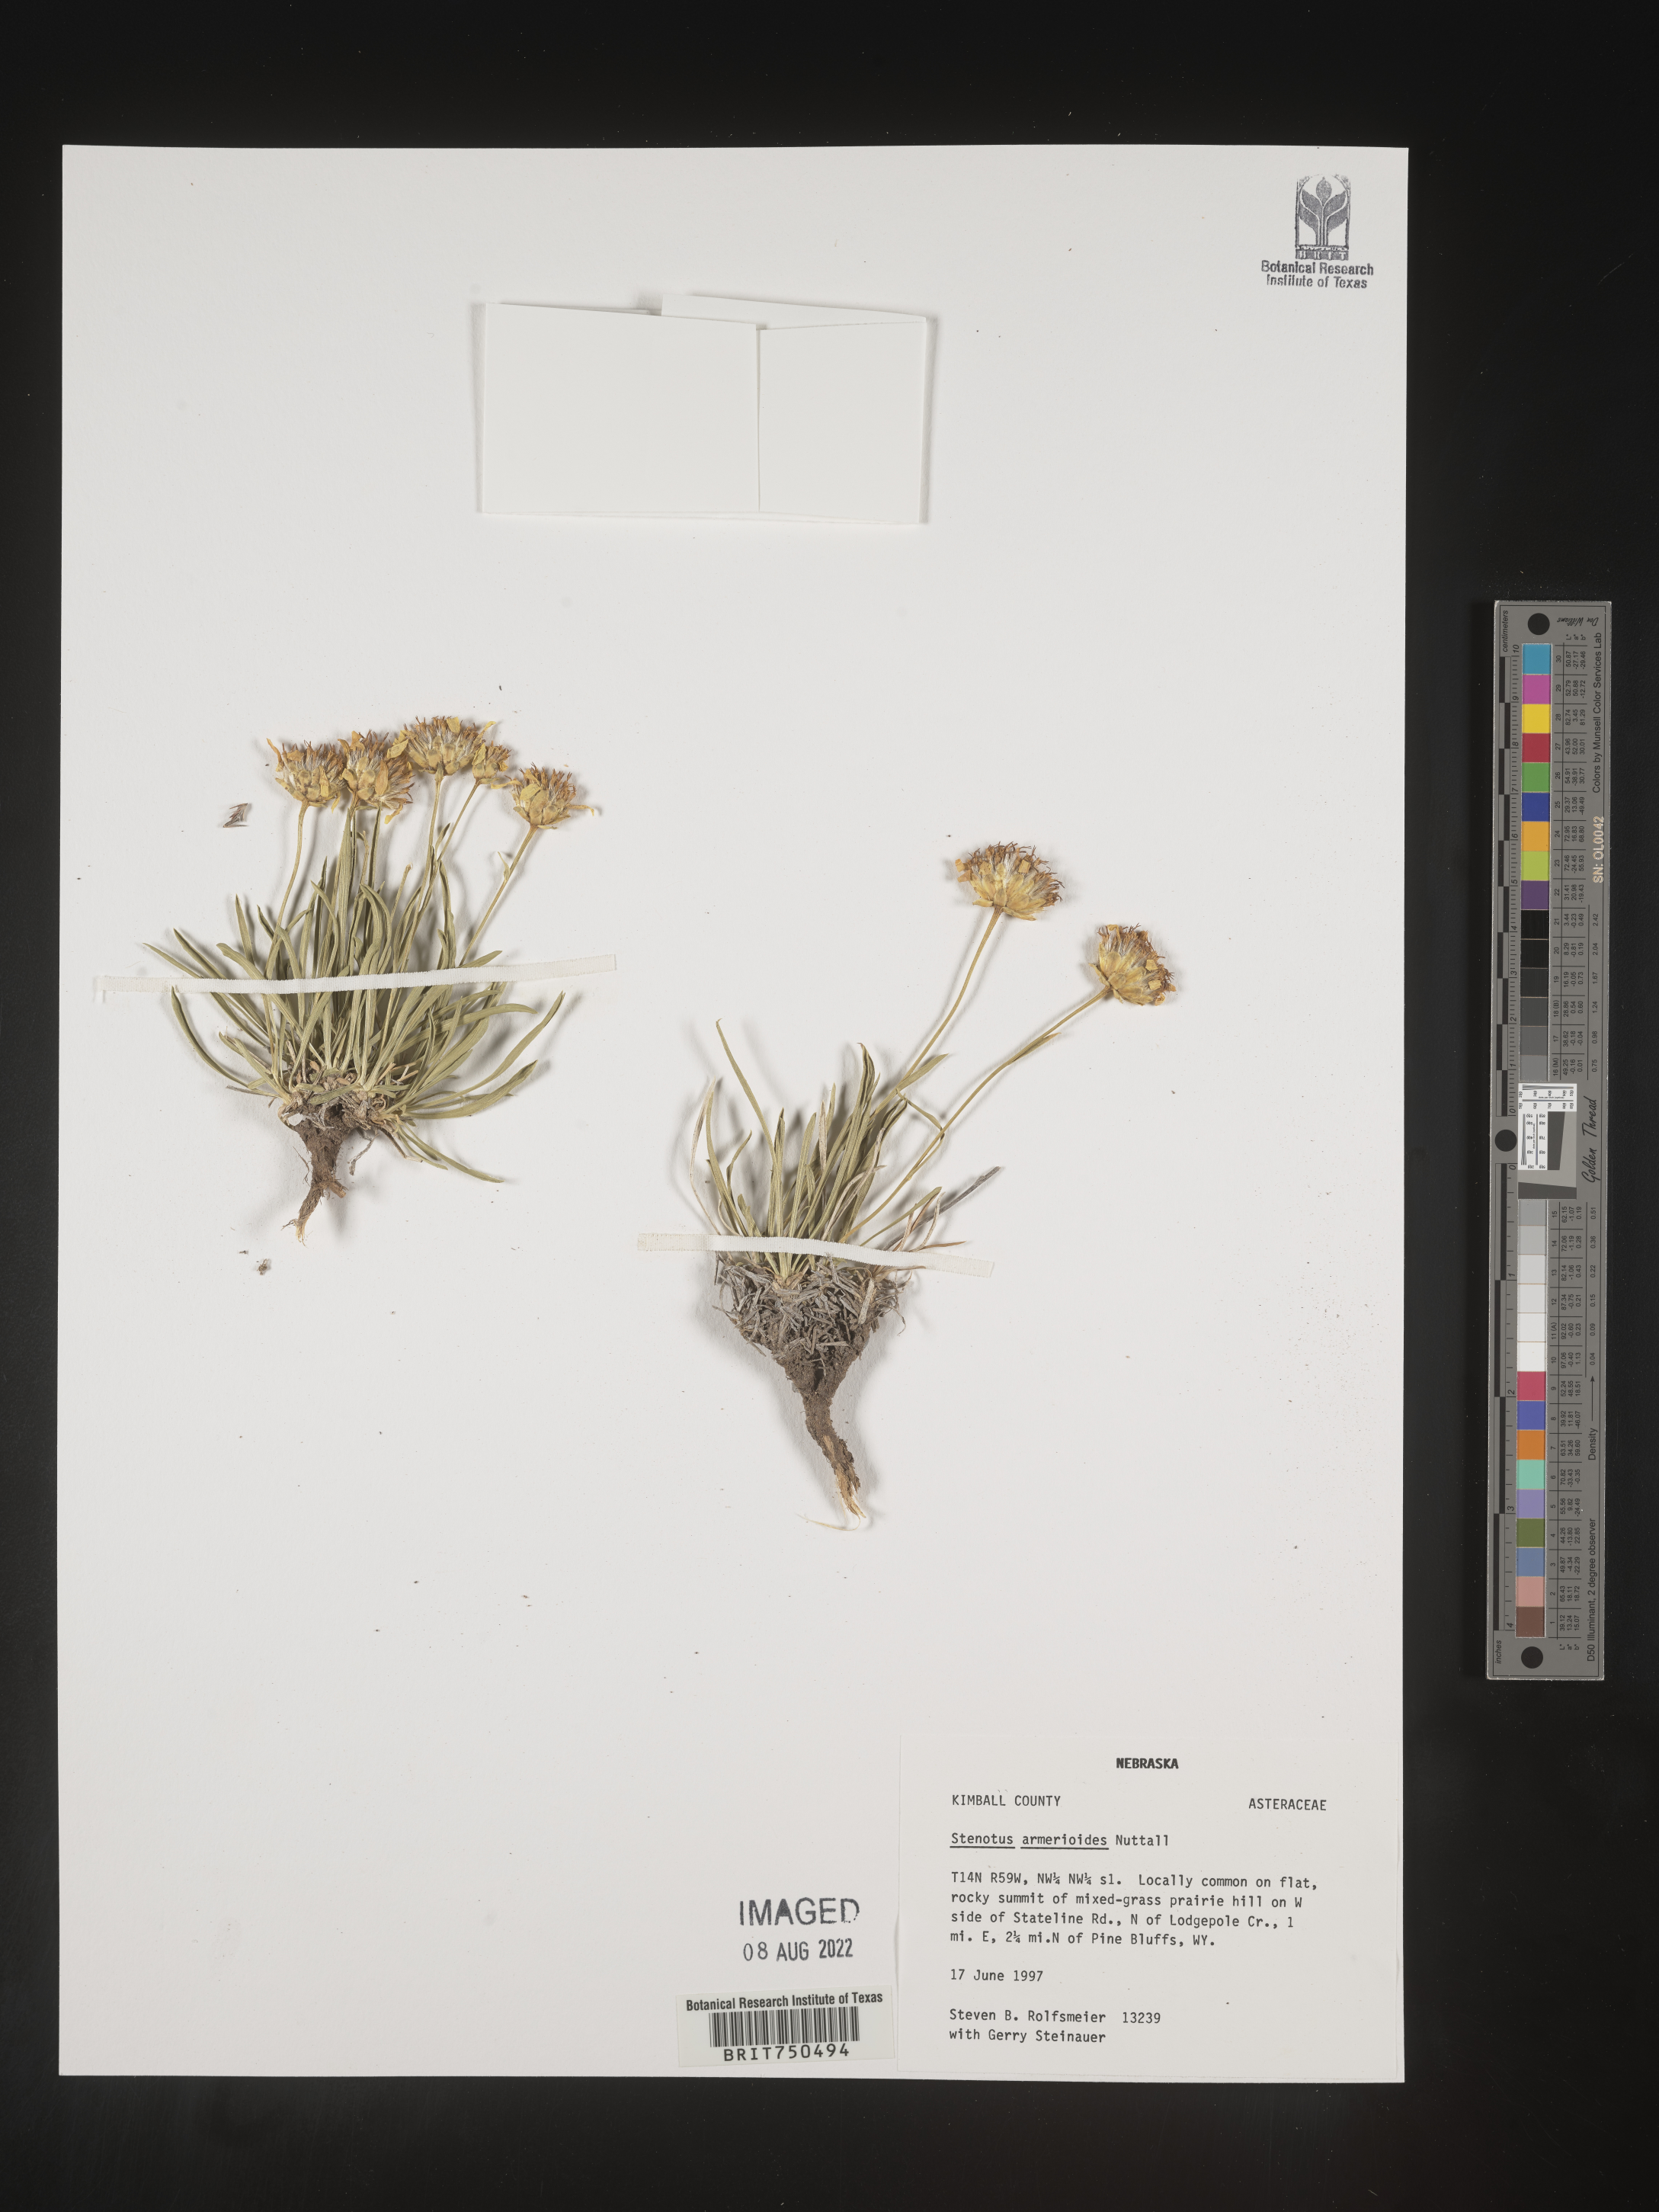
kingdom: Plantae
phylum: Tracheophyta
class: Magnoliopsida
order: Asterales
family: Asteraceae
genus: Stenotus
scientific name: Stenotus armerioides
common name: Thrifty goldenweed
